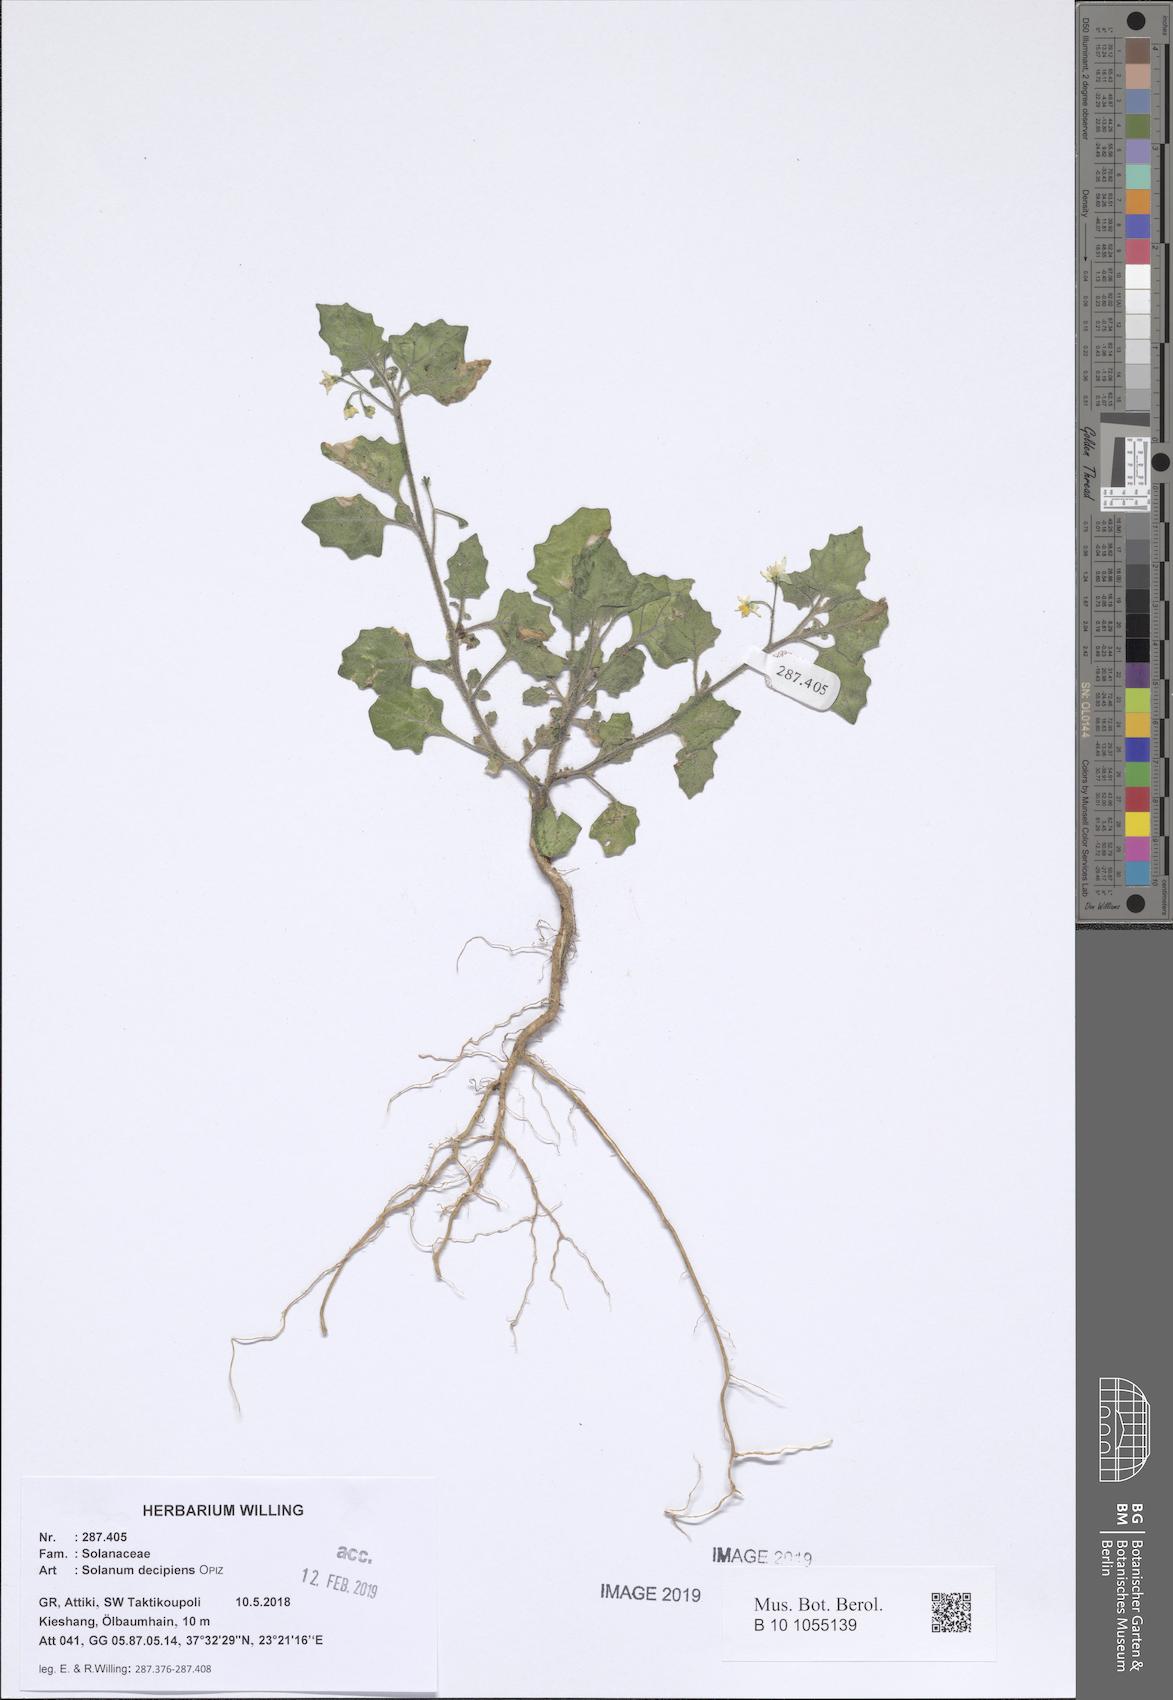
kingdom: Plantae
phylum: Tracheophyta
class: Magnoliopsida
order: Solanales
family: Solanaceae
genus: Solanum
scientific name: Solanum decipiens
